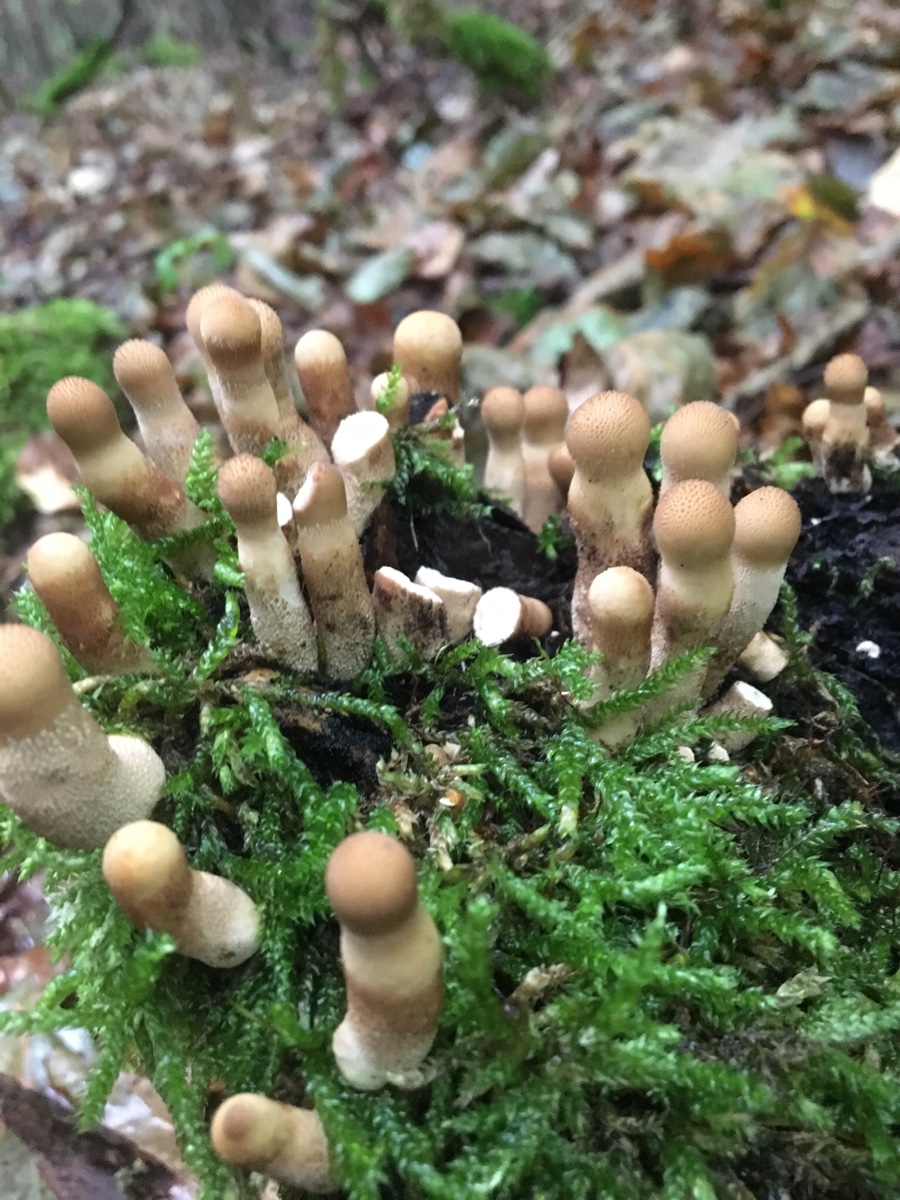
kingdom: Fungi
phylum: Basidiomycota
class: Agaricomycetes
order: Agaricales
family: Lycoperdaceae
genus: Apioperdon
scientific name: Apioperdon pyriforme
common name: pære-støvbold
